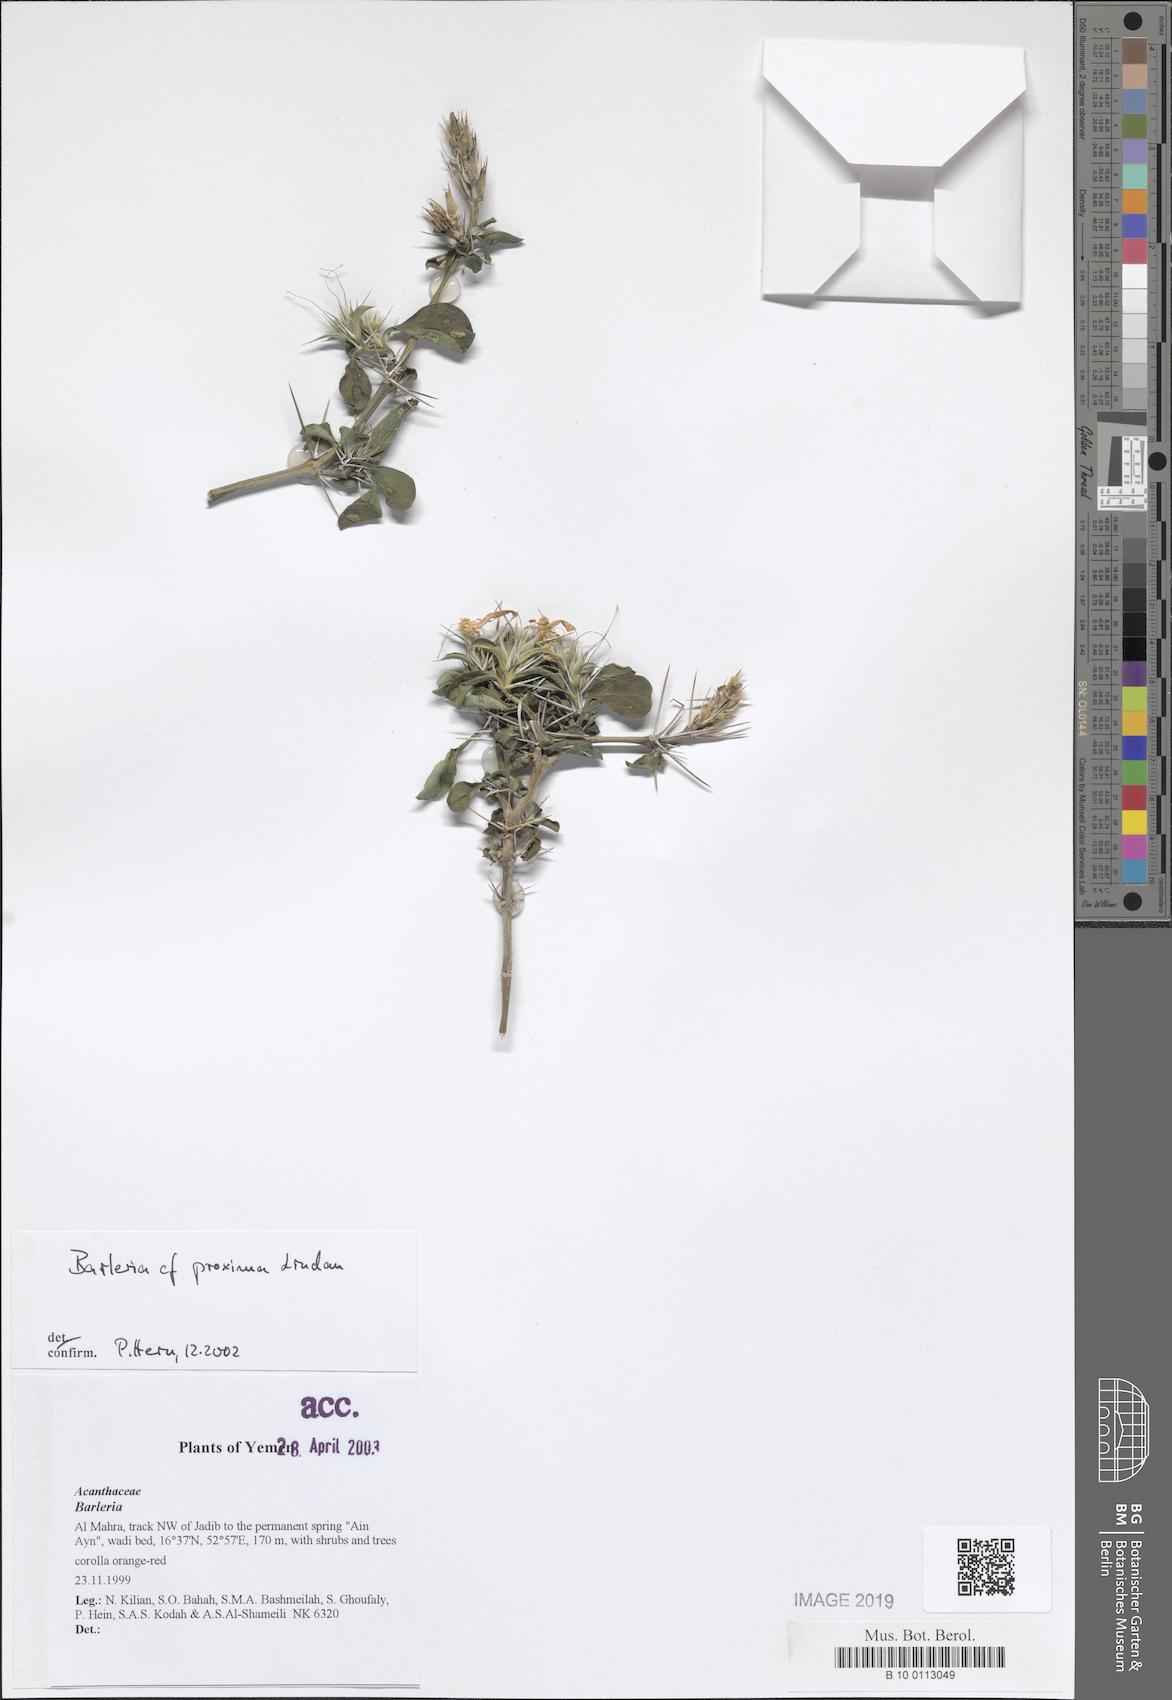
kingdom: Plantae
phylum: Tracheophyta
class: Magnoliopsida
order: Lamiales
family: Acanthaceae
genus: Barleria
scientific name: Barleria proxima
